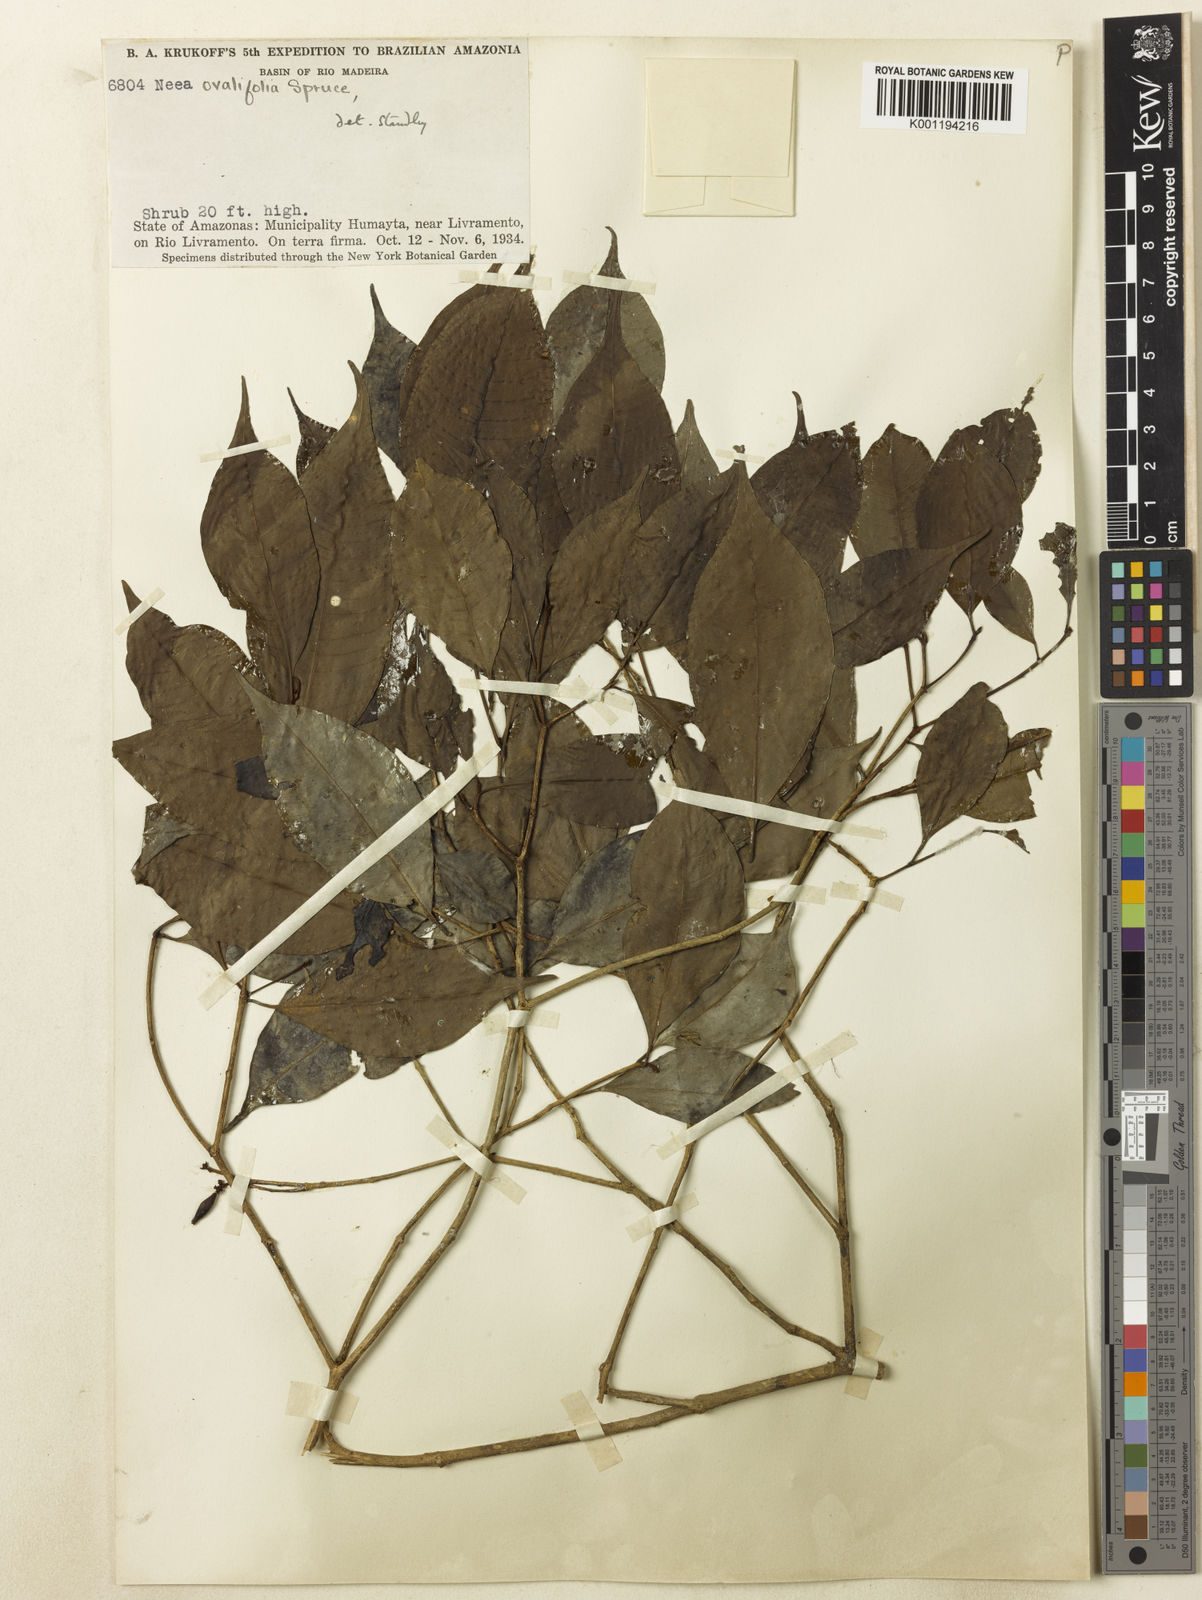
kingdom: Plantae
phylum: Tracheophyta
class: Magnoliopsida
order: Caryophyllales
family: Nyctaginaceae
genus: Neea
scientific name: Neea ovalifolia
